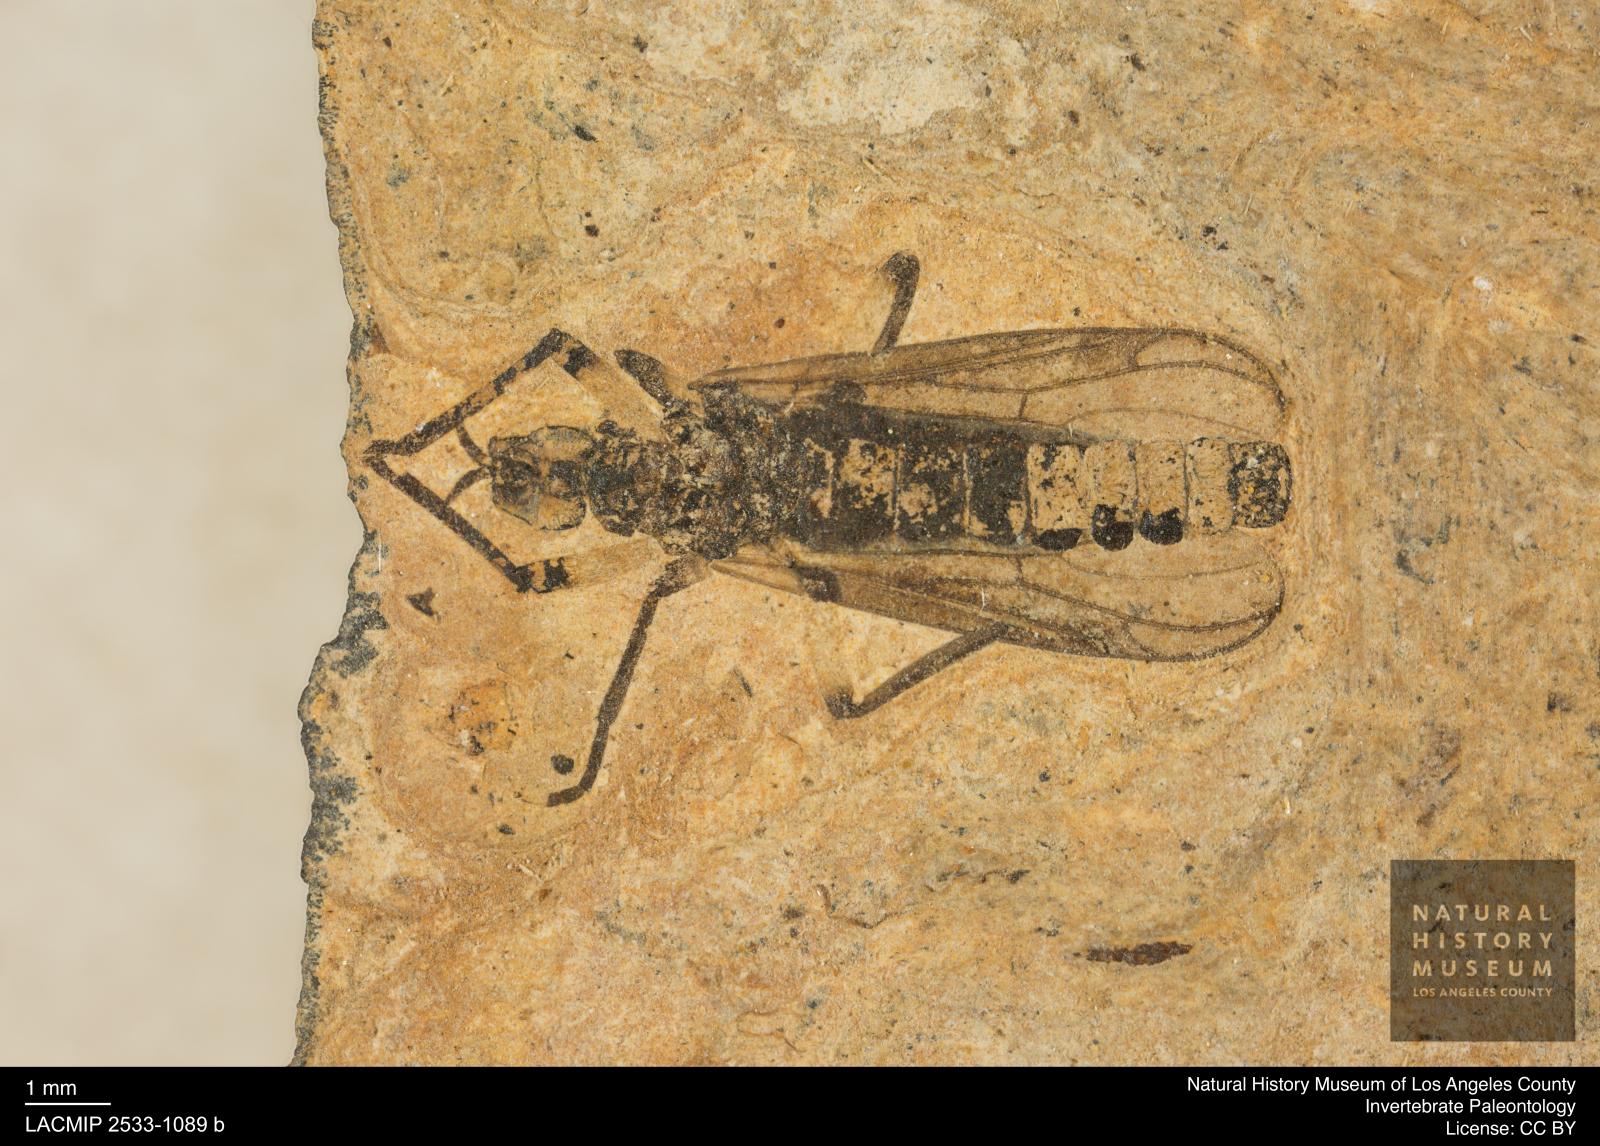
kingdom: Animalia
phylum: Arthropoda
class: Insecta
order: Diptera
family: Bibionidae
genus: Plecia
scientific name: Plecia
